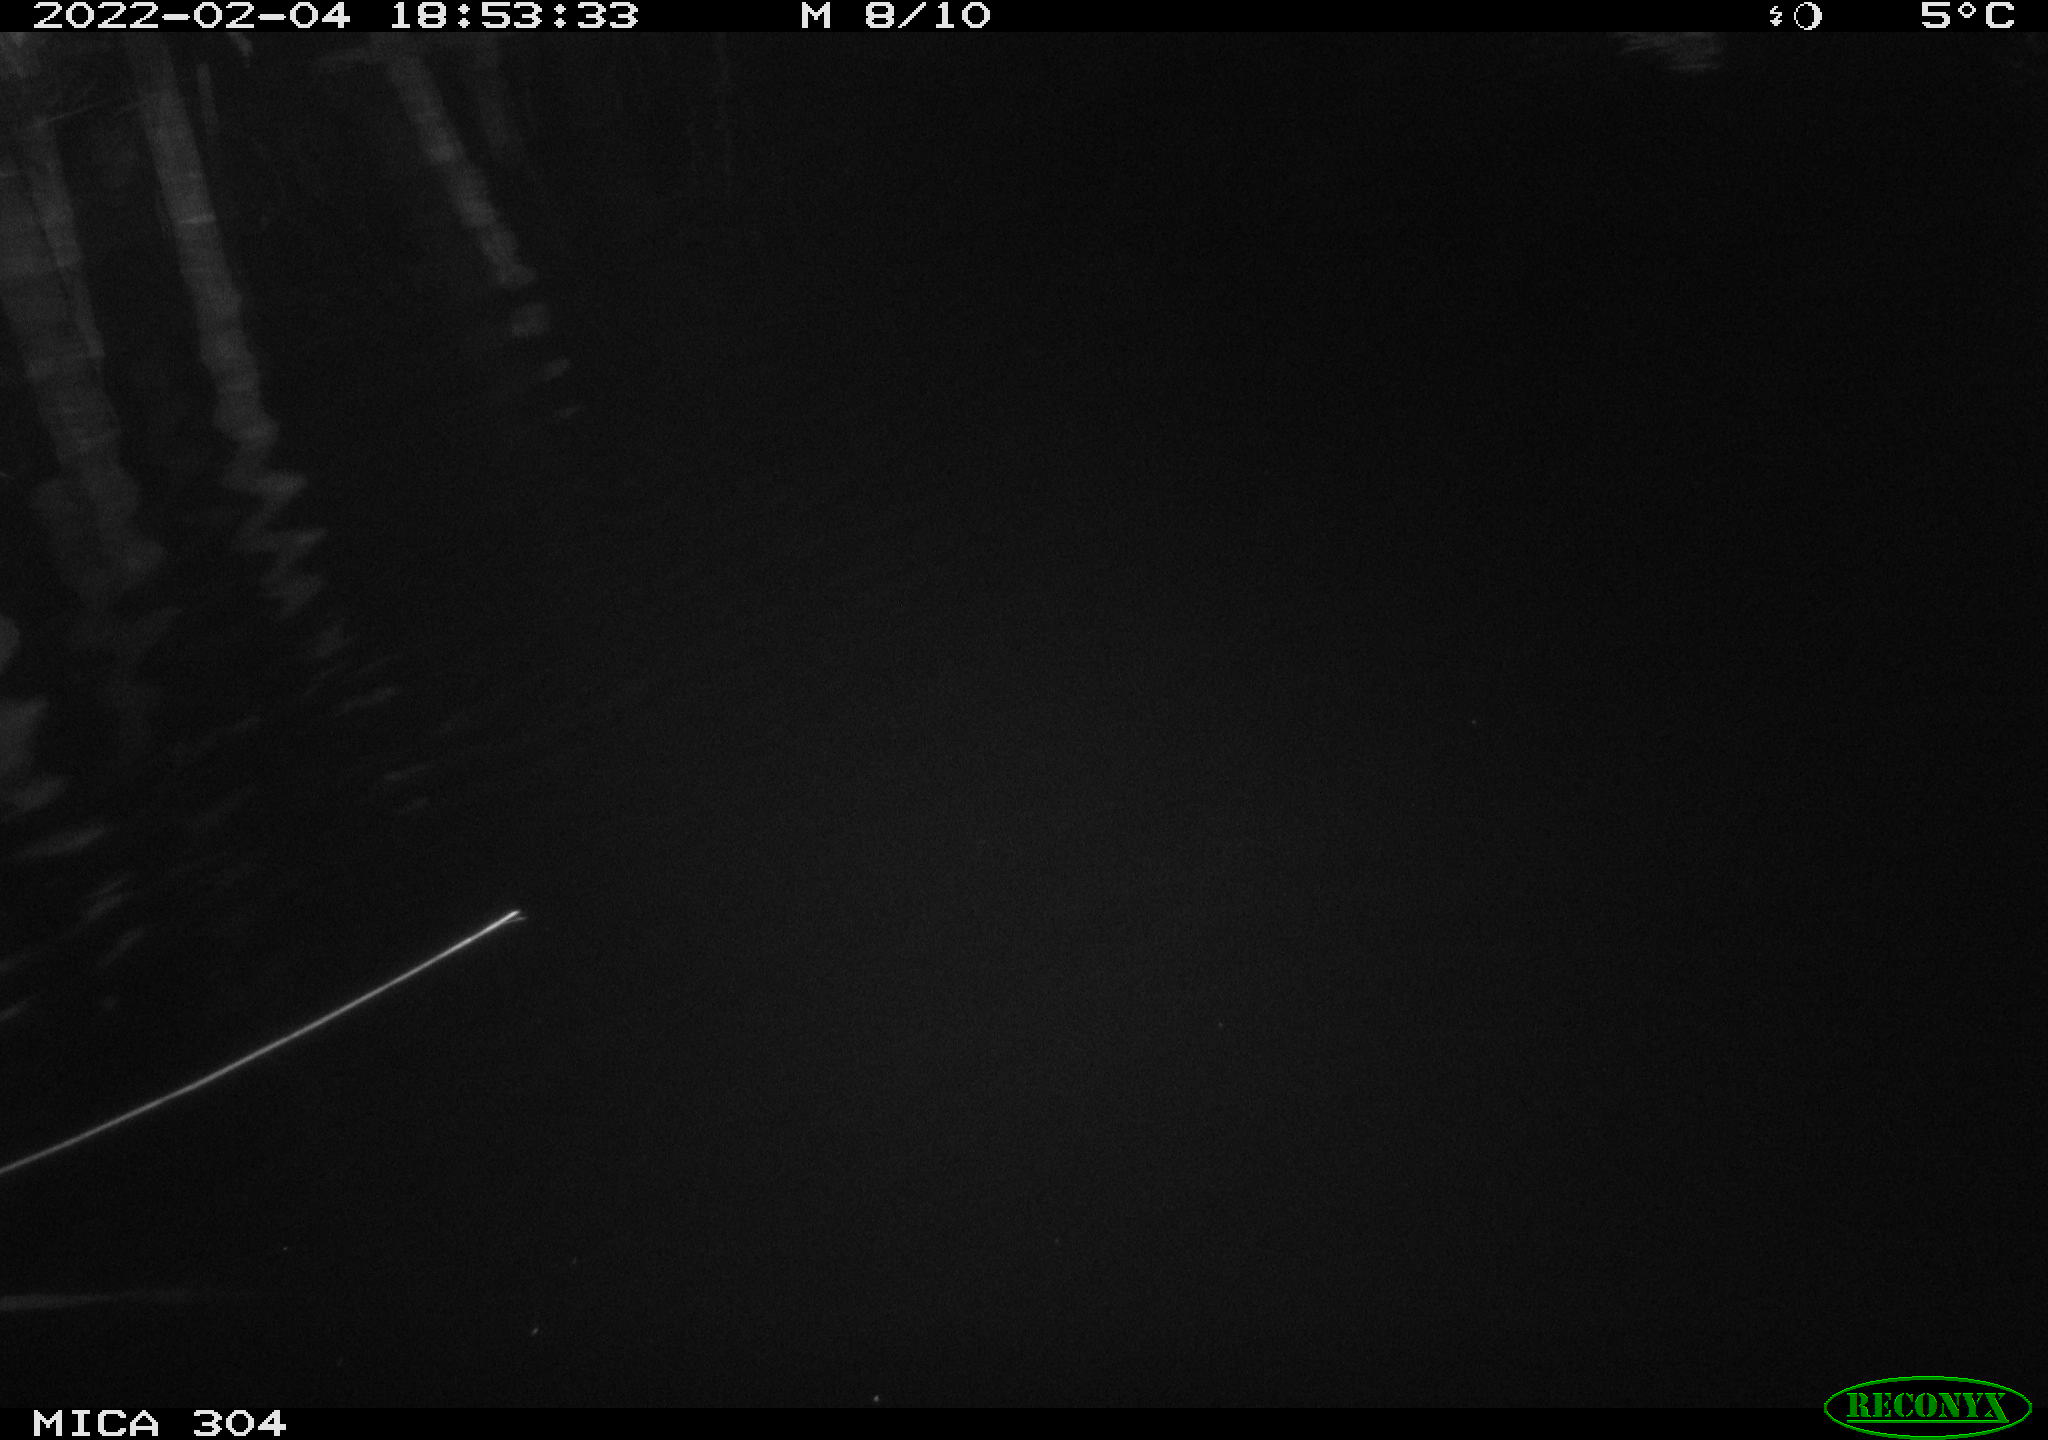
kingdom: Animalia
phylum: Chordata
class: Aves
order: Anseriformes
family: Anatidae
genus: Anas
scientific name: Anas platyrhynchos
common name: Mallard
